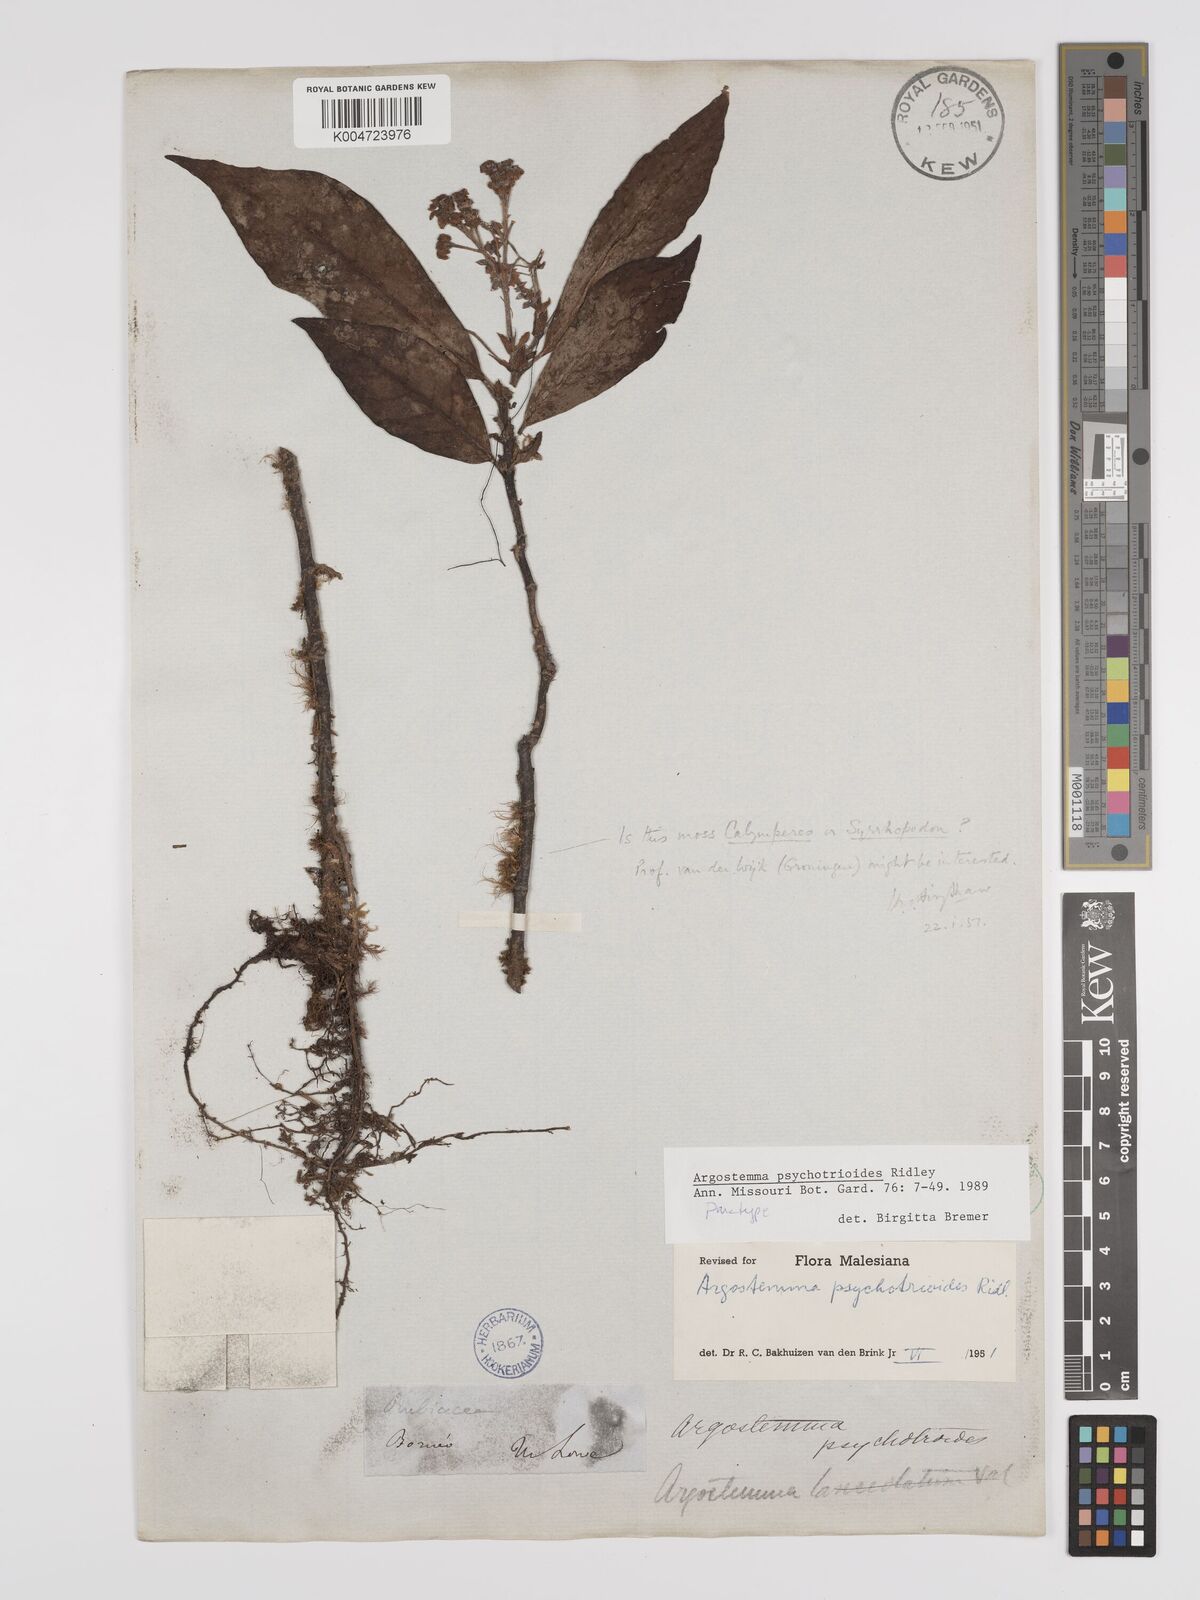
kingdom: Plantae
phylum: Tracheophyta
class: Magnoliopsida
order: Gentianales
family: Rubiaceae
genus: Argostemma
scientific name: Argostemma psychotrioides
